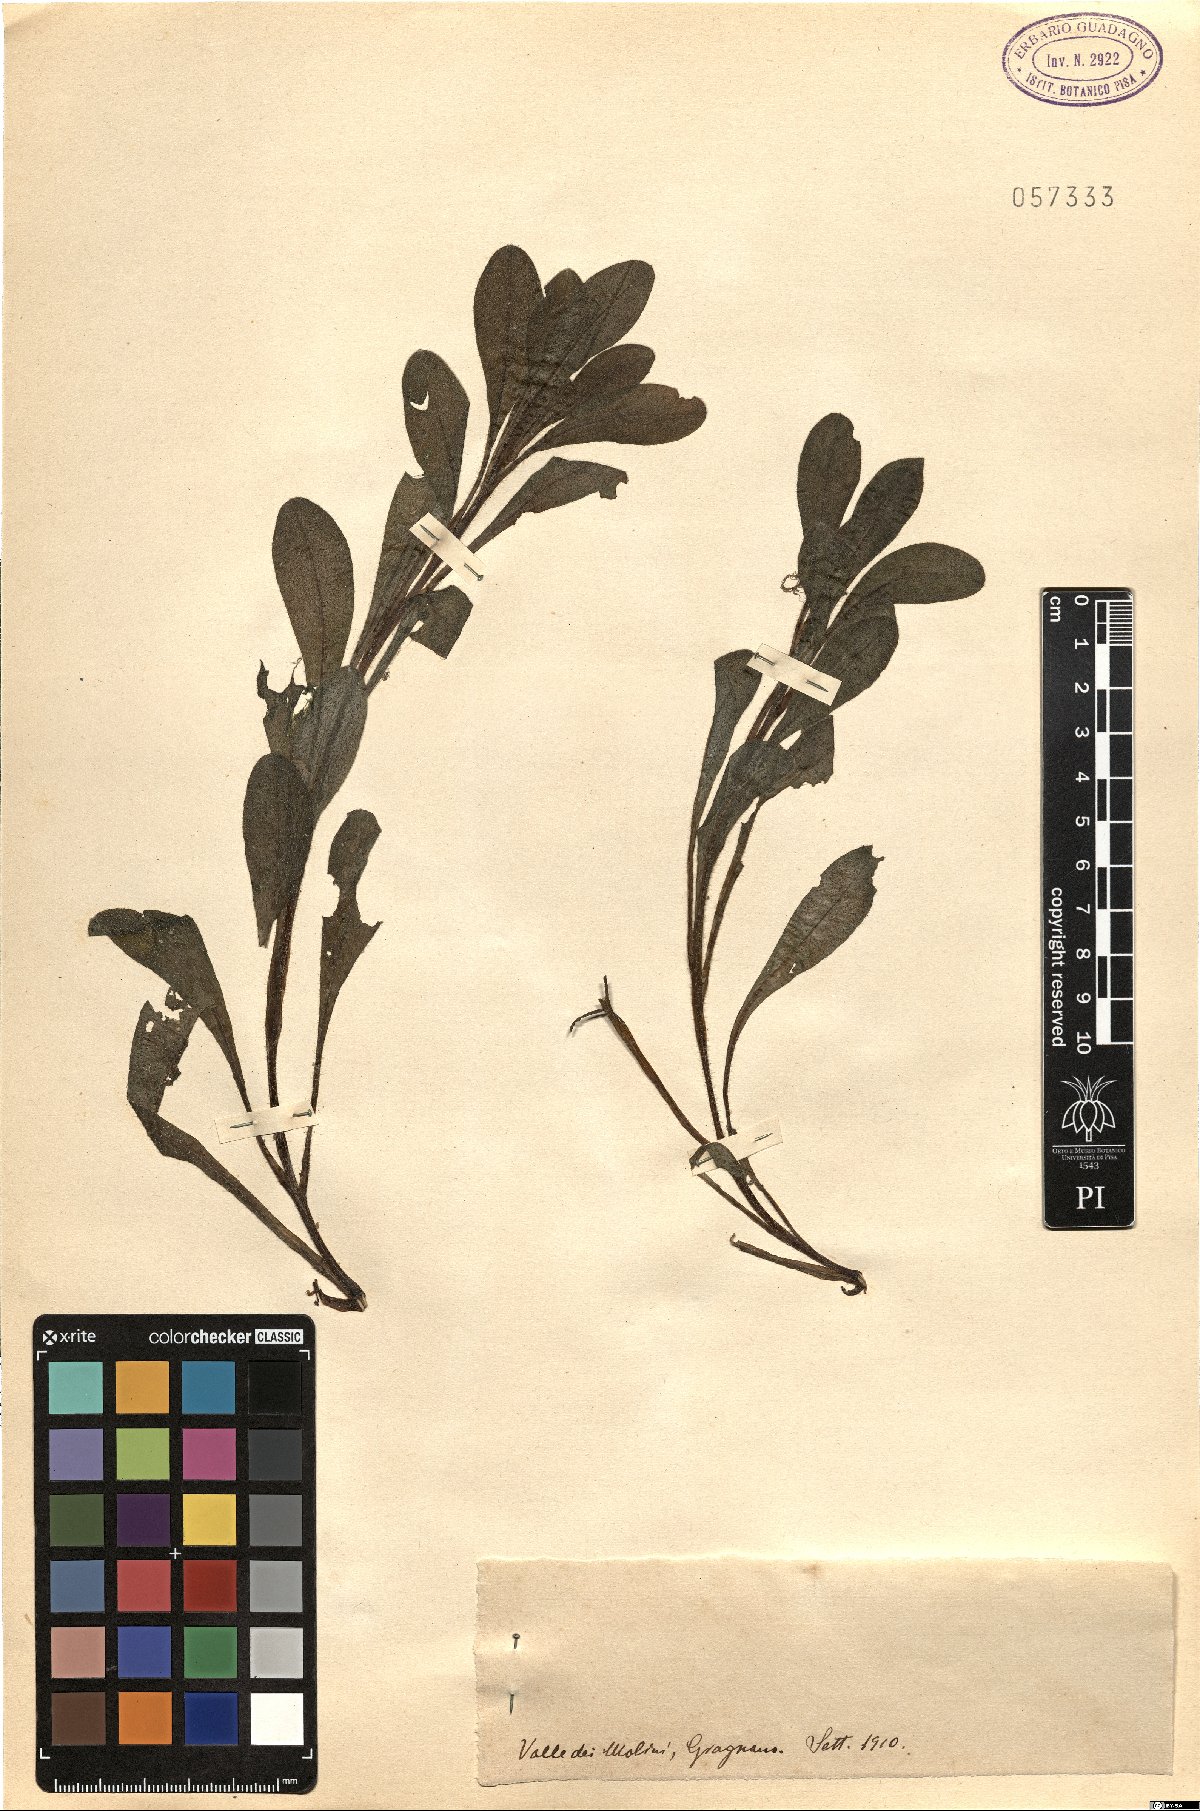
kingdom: Plantae
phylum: Tracheophyta
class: Magnoliopsida
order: Boraginales
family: Boraginaceae
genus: Myosotis
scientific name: Myosotis
